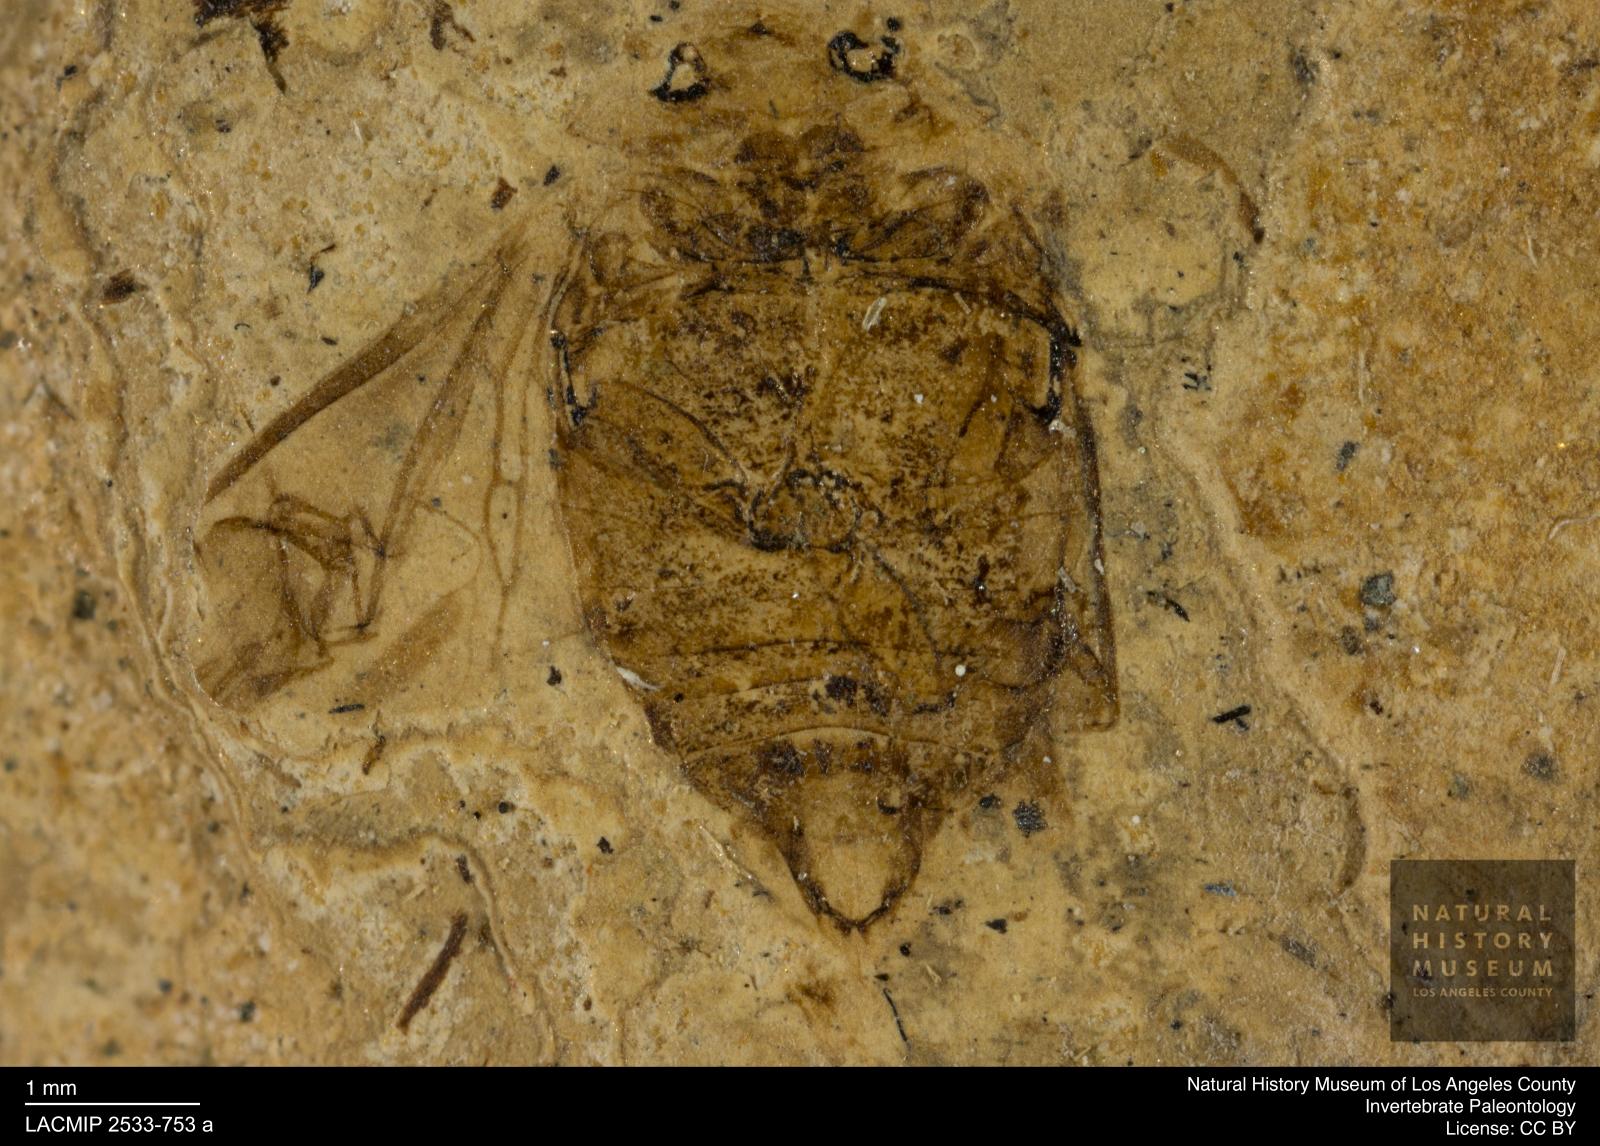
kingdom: Animalia
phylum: Arthropoda
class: Insecta
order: Coleoptera
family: Dytiscidae
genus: Laccophilus
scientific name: Laccophilus Palaeogyrinus strigatus
